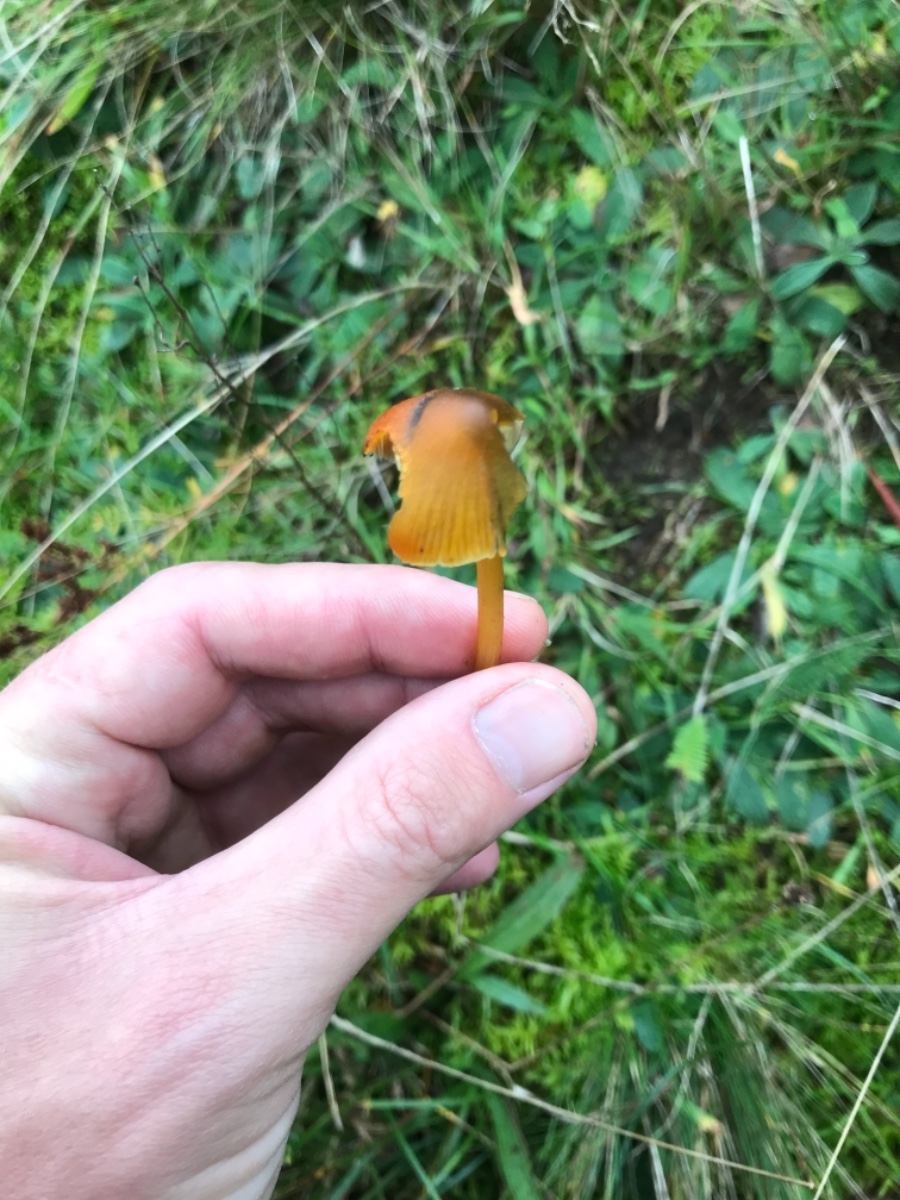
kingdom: Fungi
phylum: Basidiomycota
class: Agaricomycetes
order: Agaricales
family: Hygrophoraceae
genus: Hygrocybe
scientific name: Hygrocybe conica
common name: kegle-vokshat
